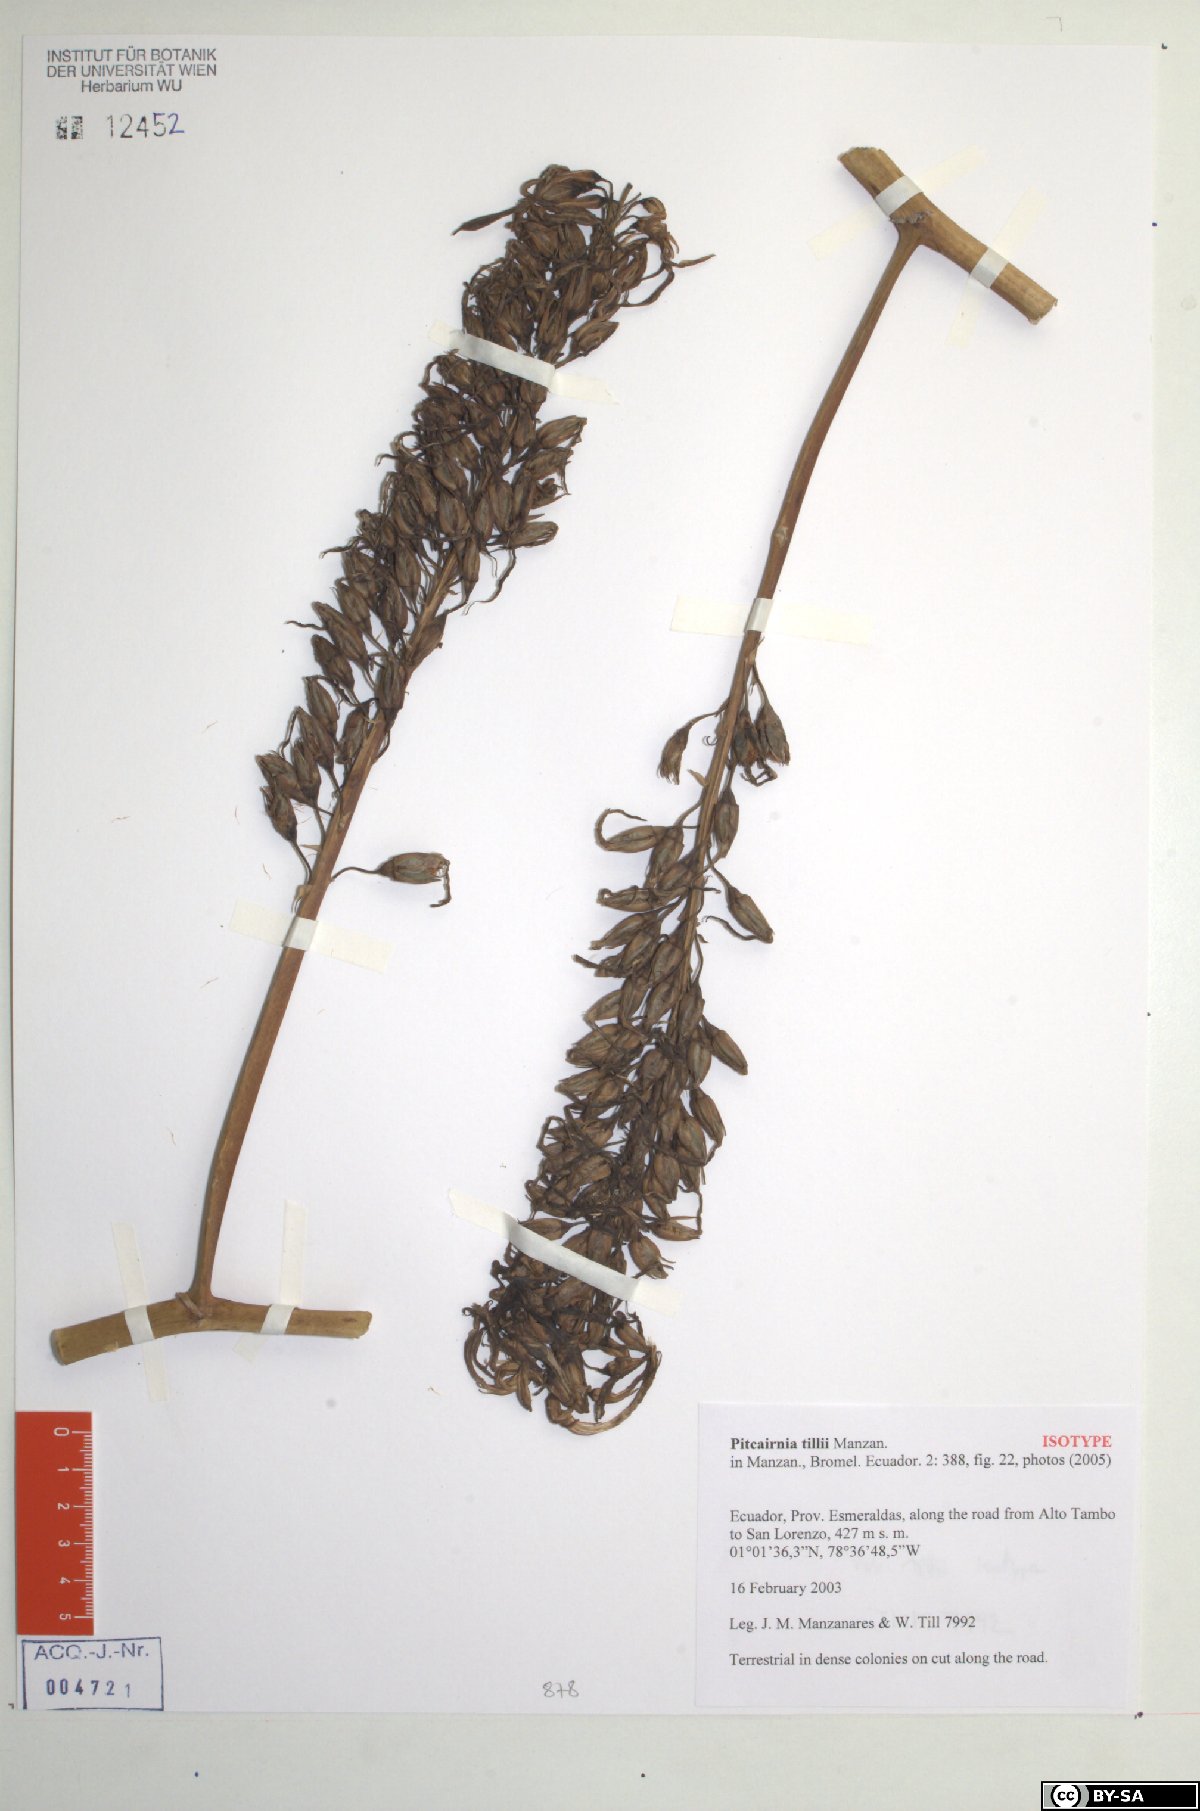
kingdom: Plantae
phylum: Tracheophyta
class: Liliopsida
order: Poales
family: Bromeliaceae
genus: Pitcairnia
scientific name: Pitcairnia tillii
